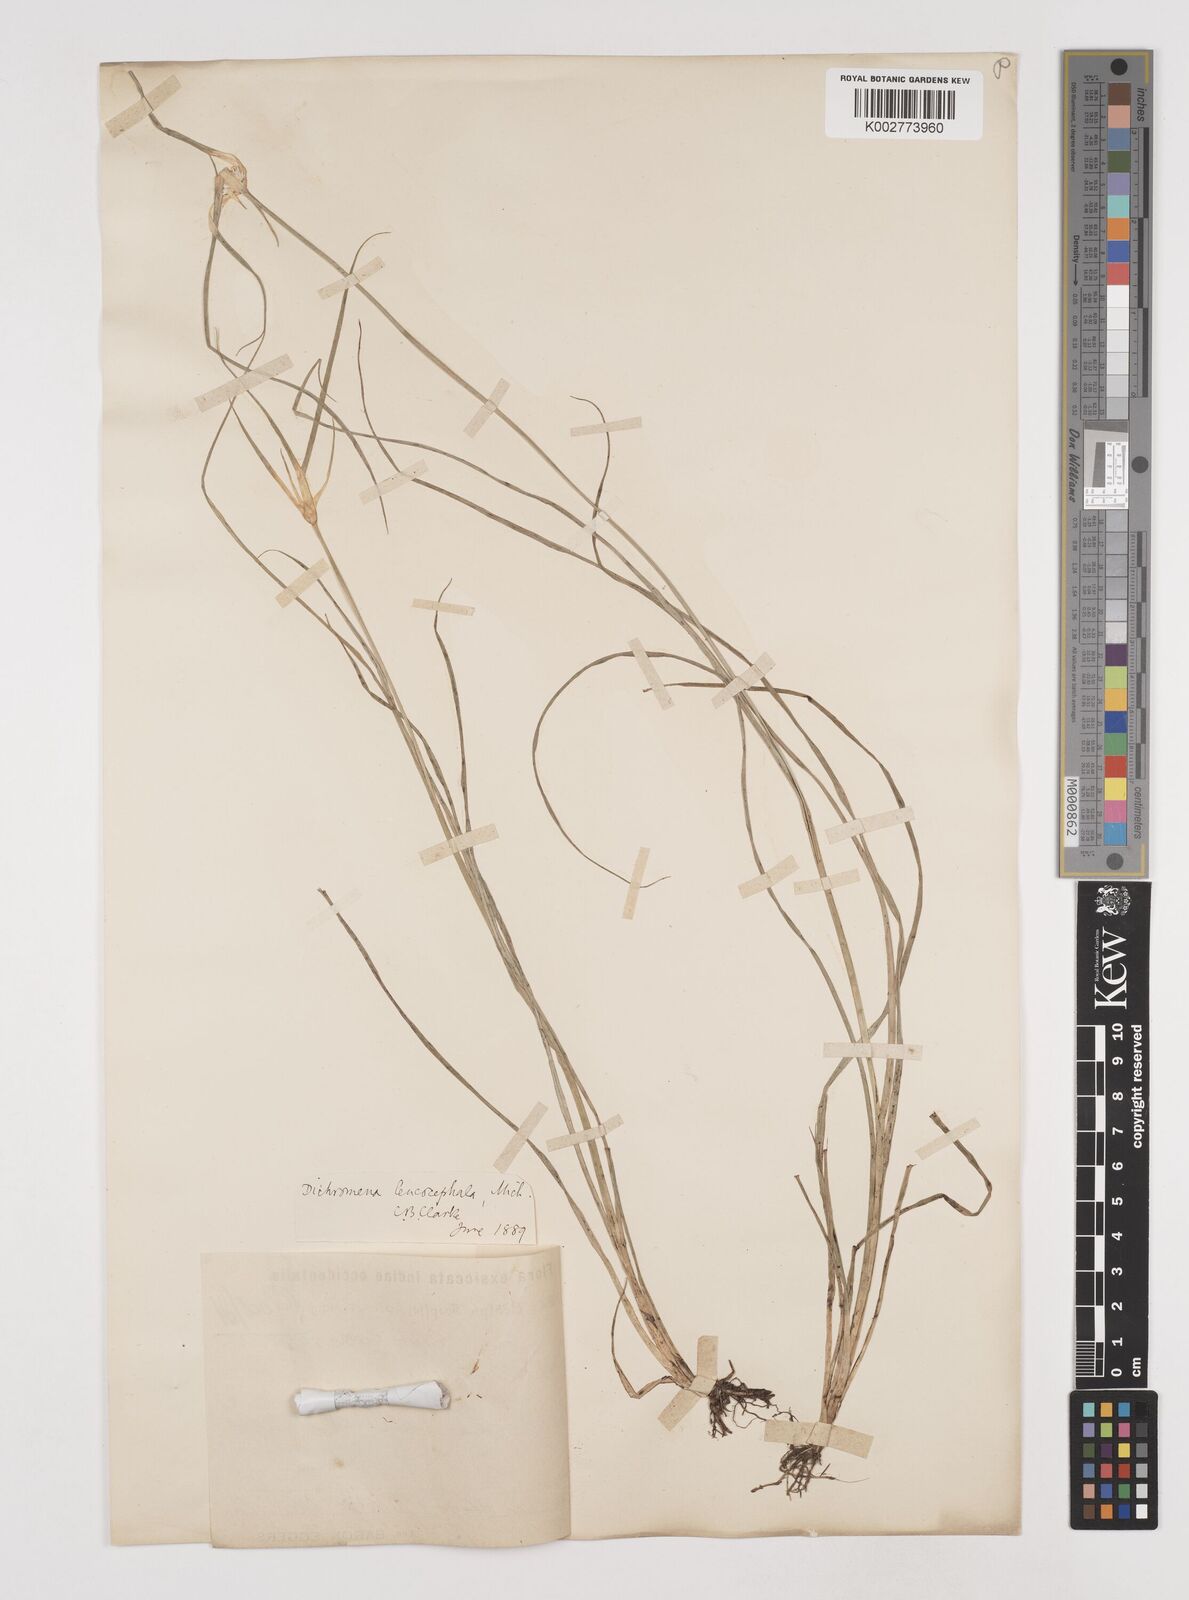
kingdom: Plantae
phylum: Tracheophyta
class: Liliopsida
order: Poales
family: Cyperaceae
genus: Rhynchospora
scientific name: Rhynchospora colorata
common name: Star sedge
